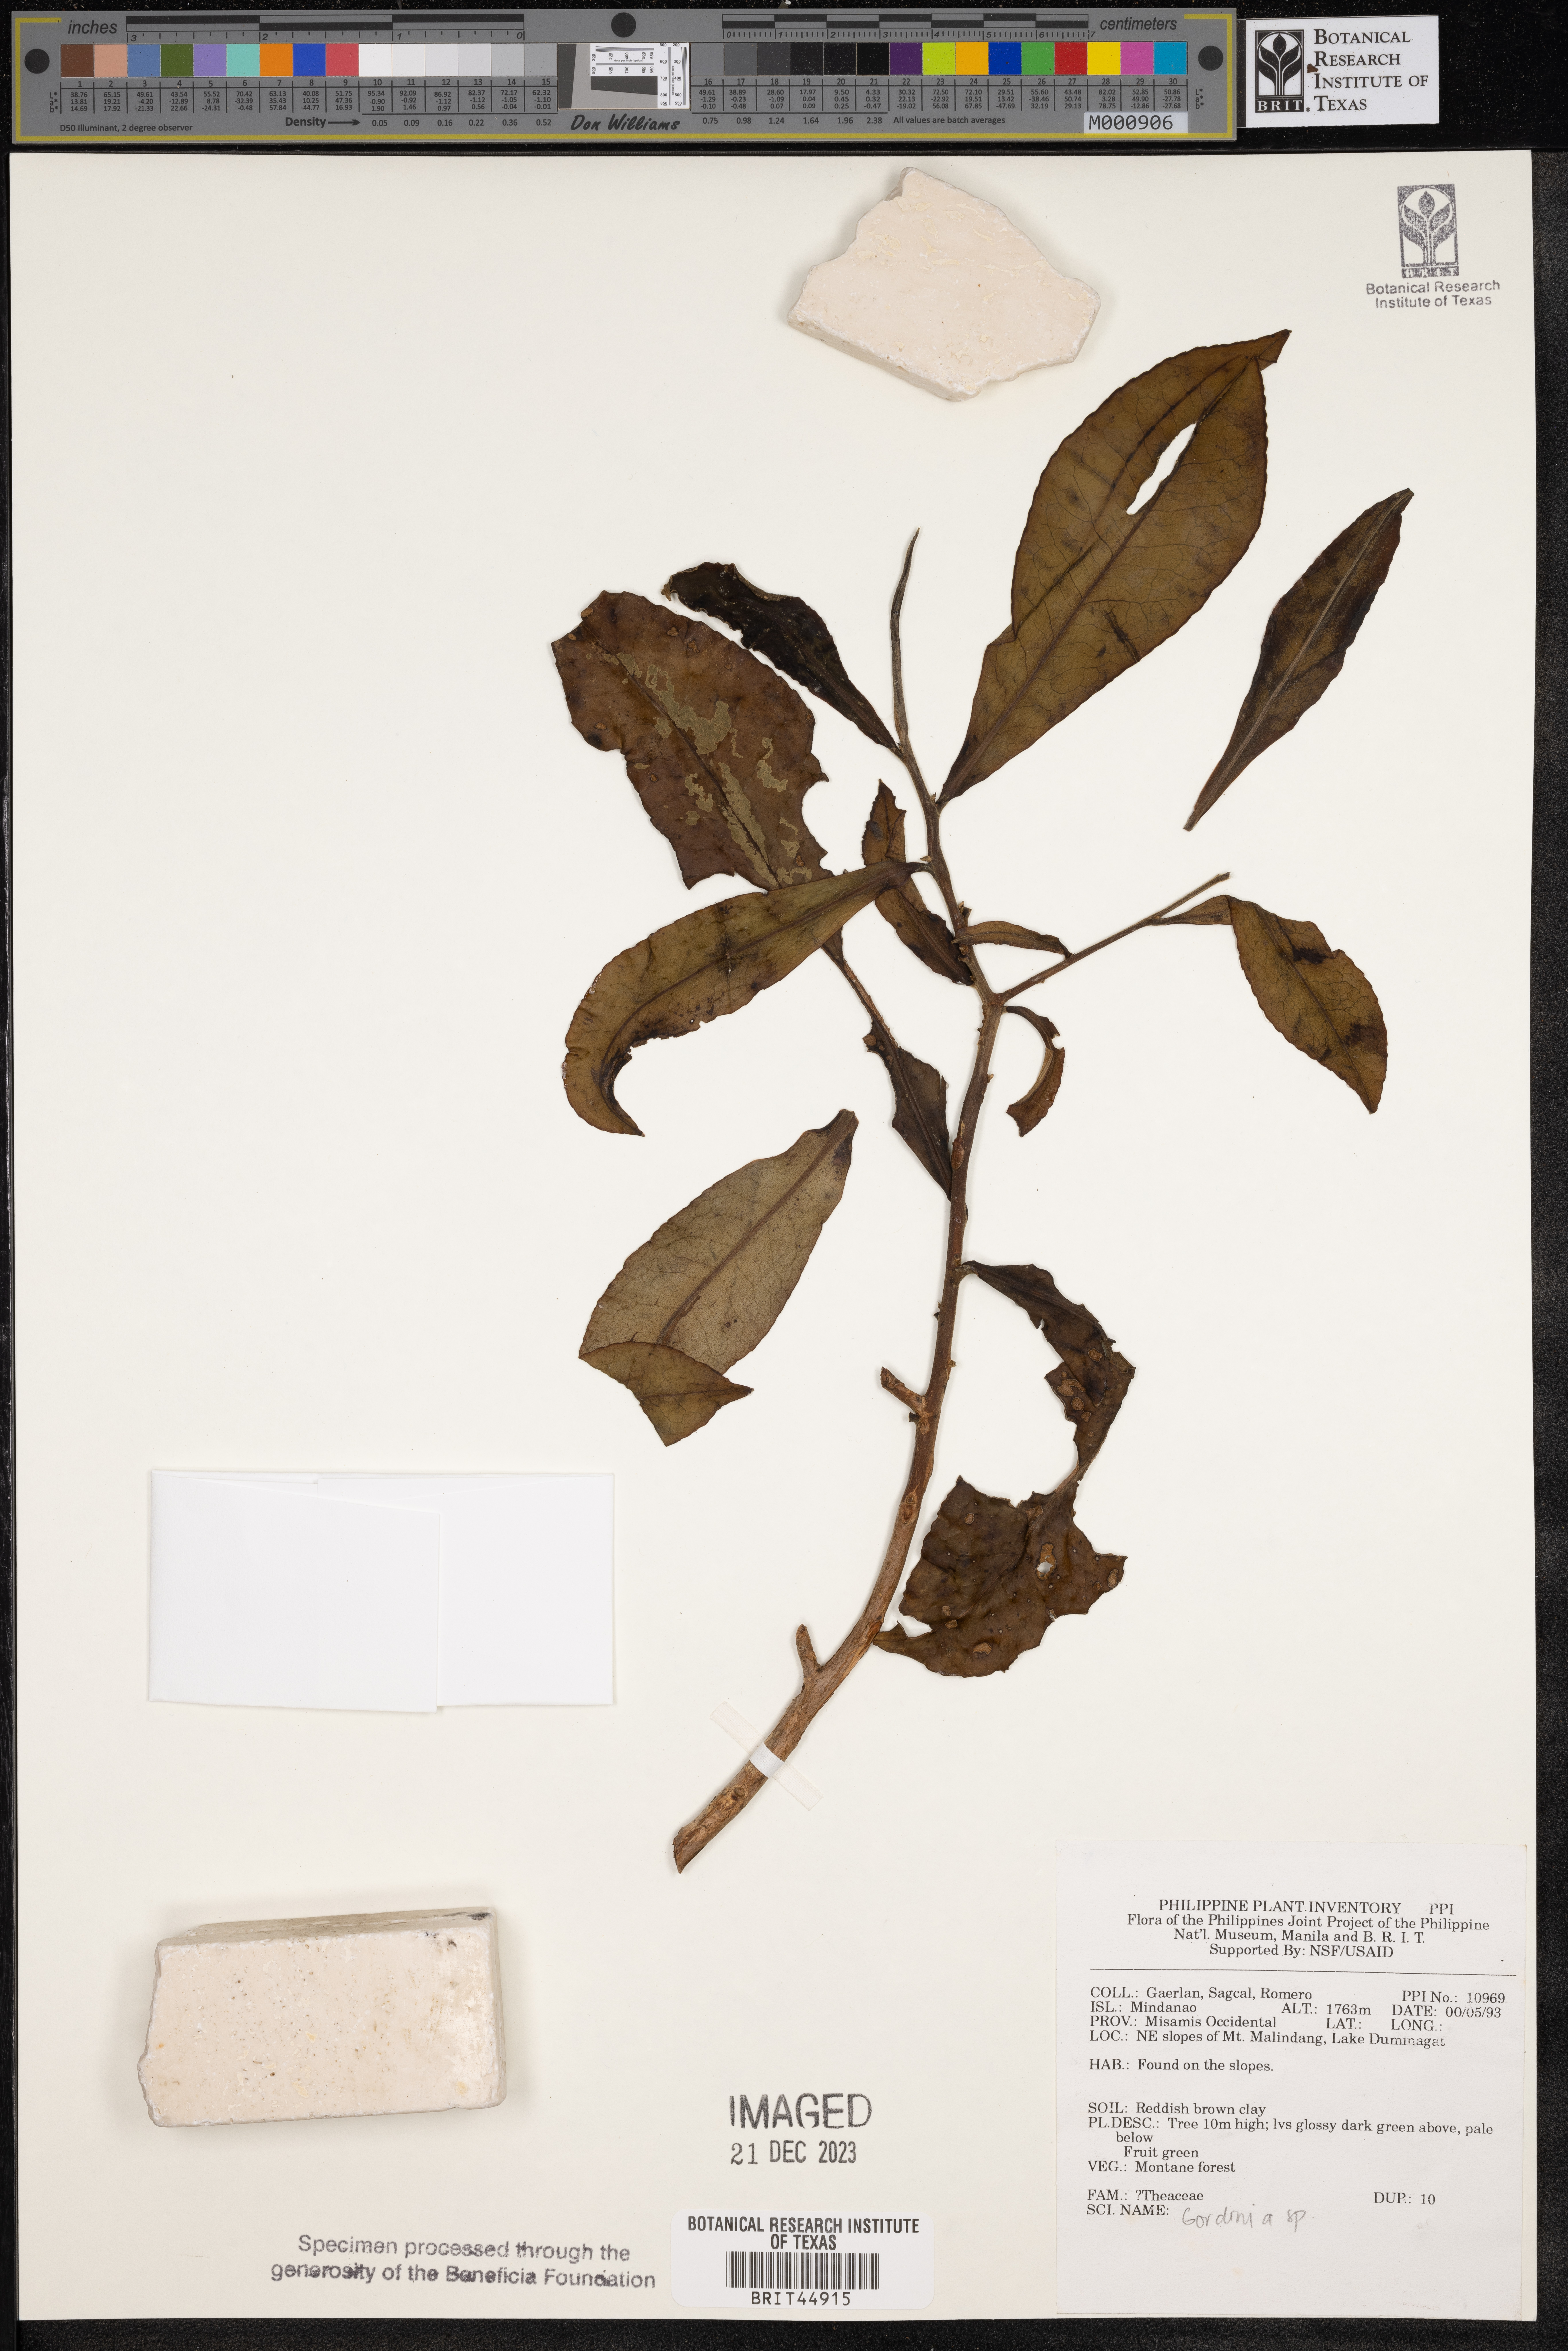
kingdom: Plantae
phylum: Tracheophyta
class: Magnoliopsida
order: Ericales
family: Theaceae
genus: Gordonia
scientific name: Gordonia
